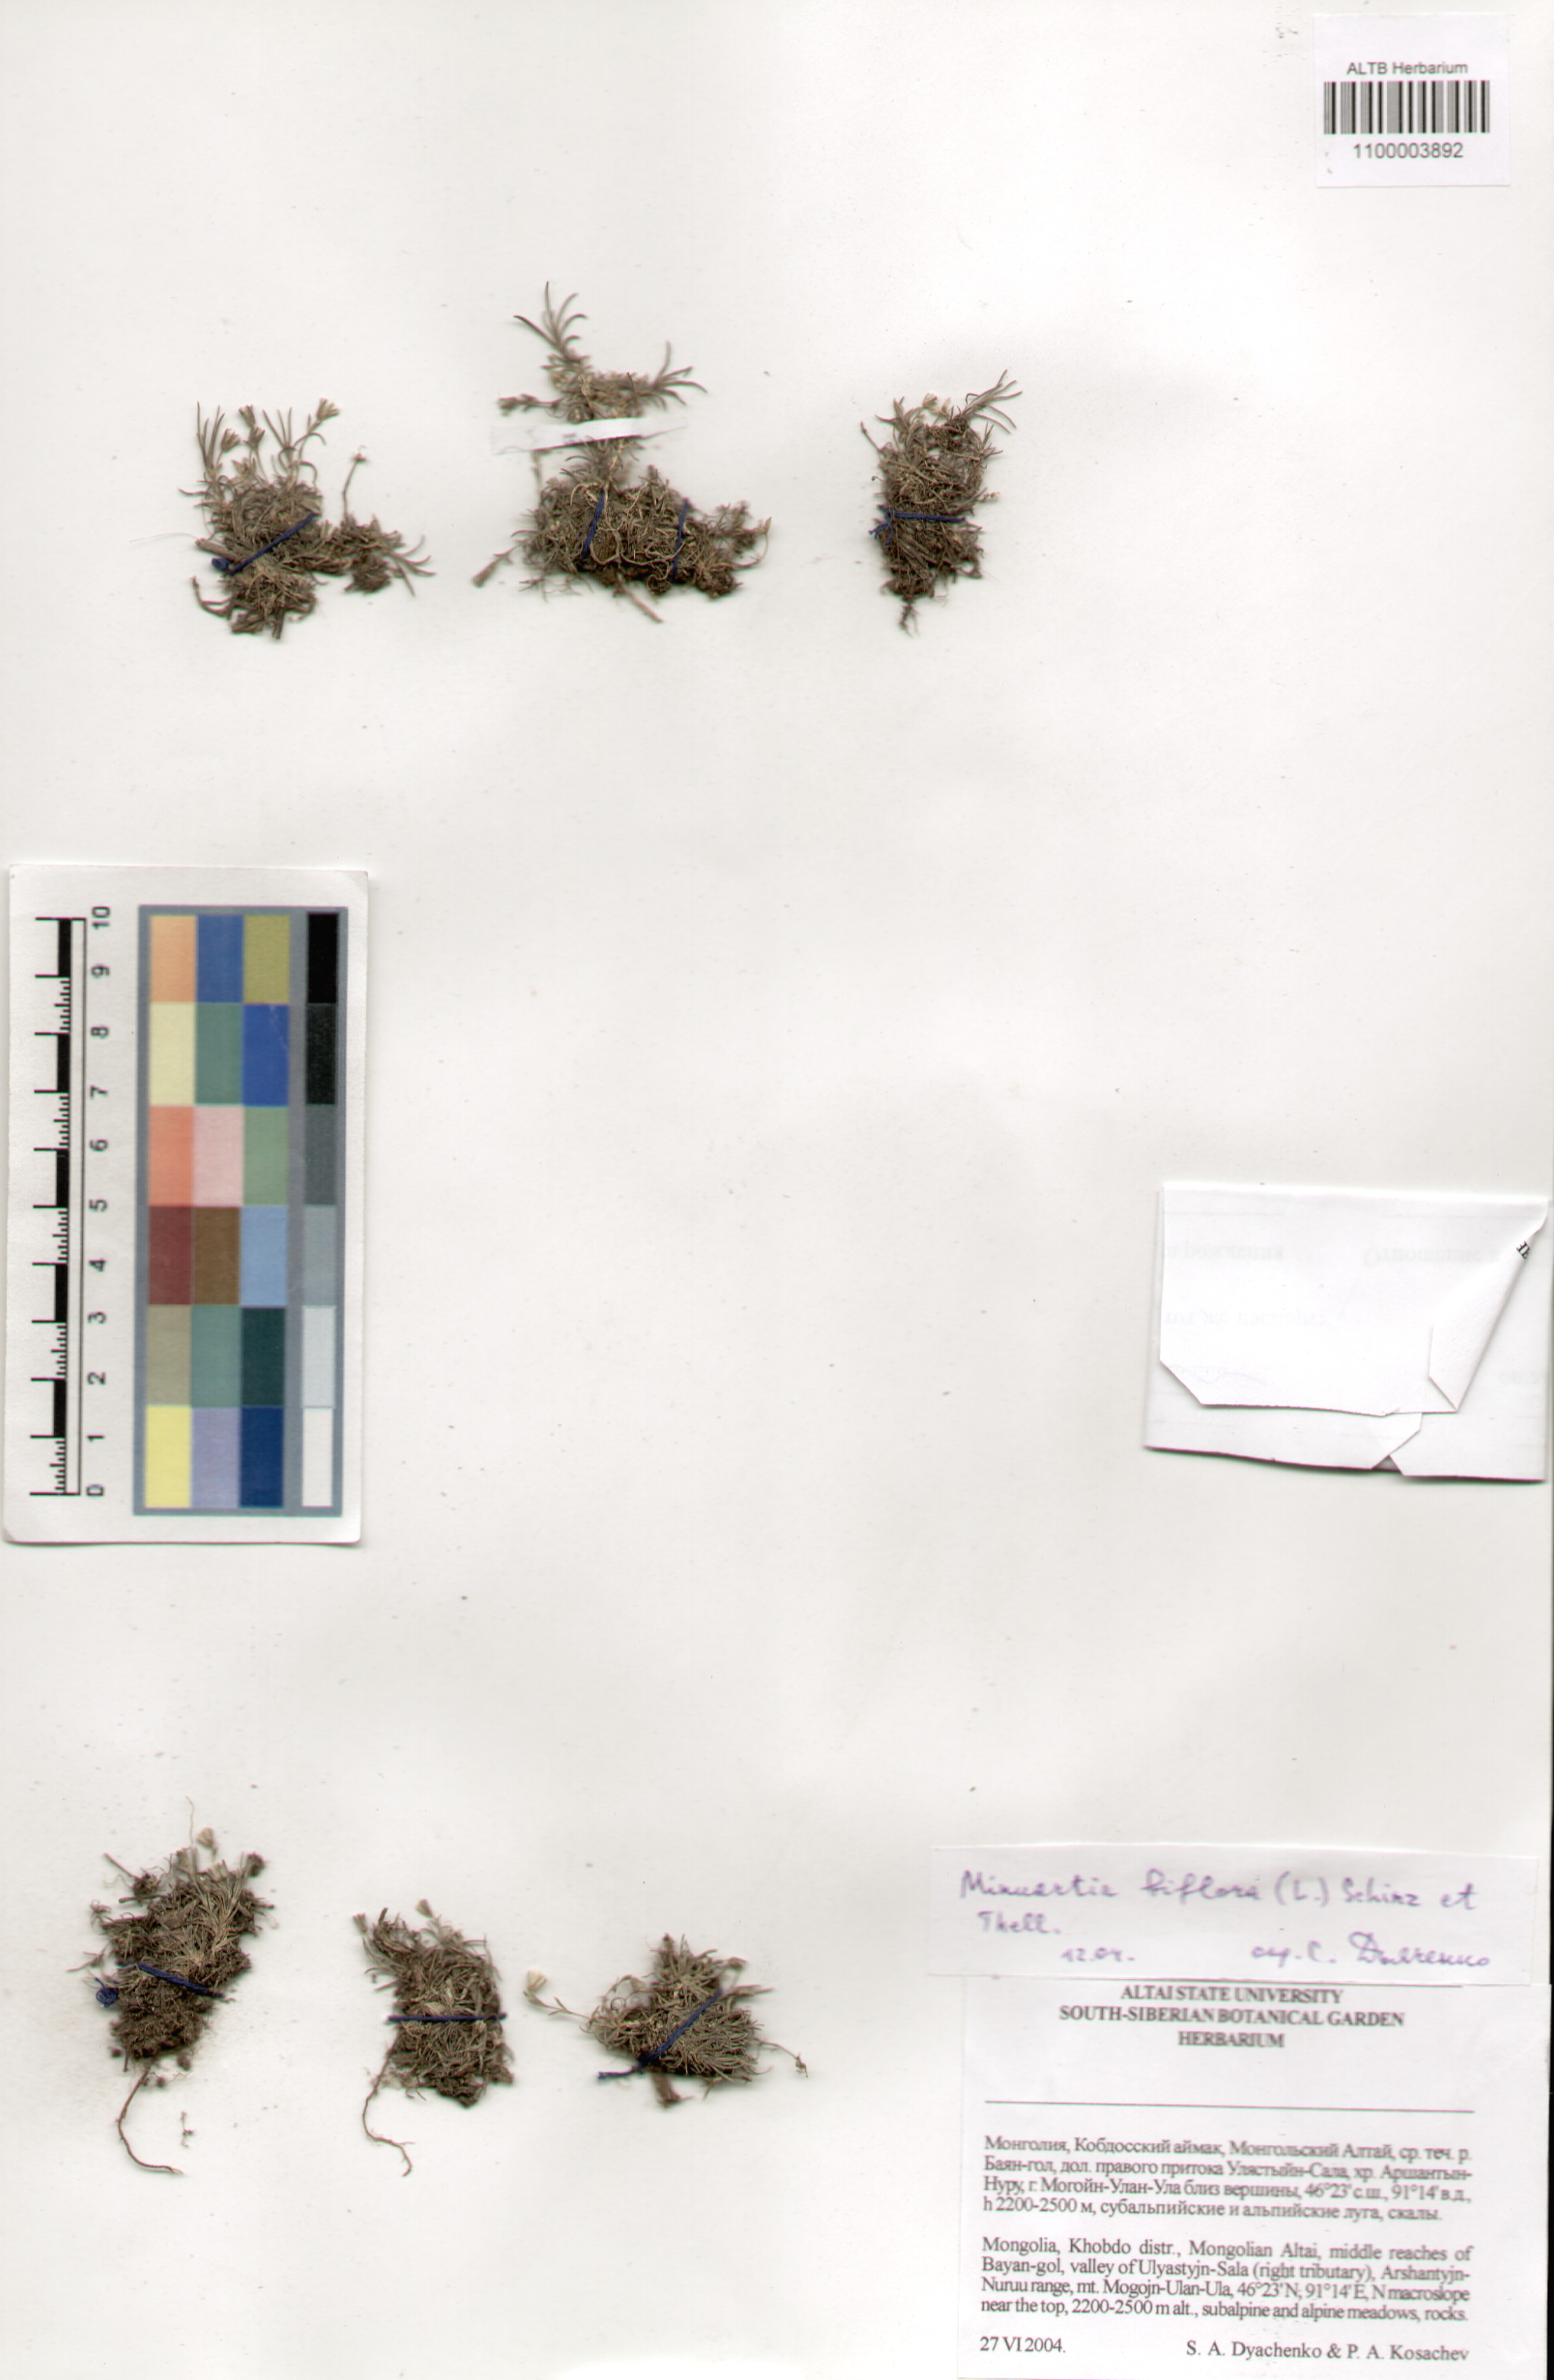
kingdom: Plantae
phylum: Tracheophyta
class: Magnoliopsida
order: Caryophyllales
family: Caryophyllaceae
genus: Cherleria
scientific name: Cherleria biflora
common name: Mountain sandwort
